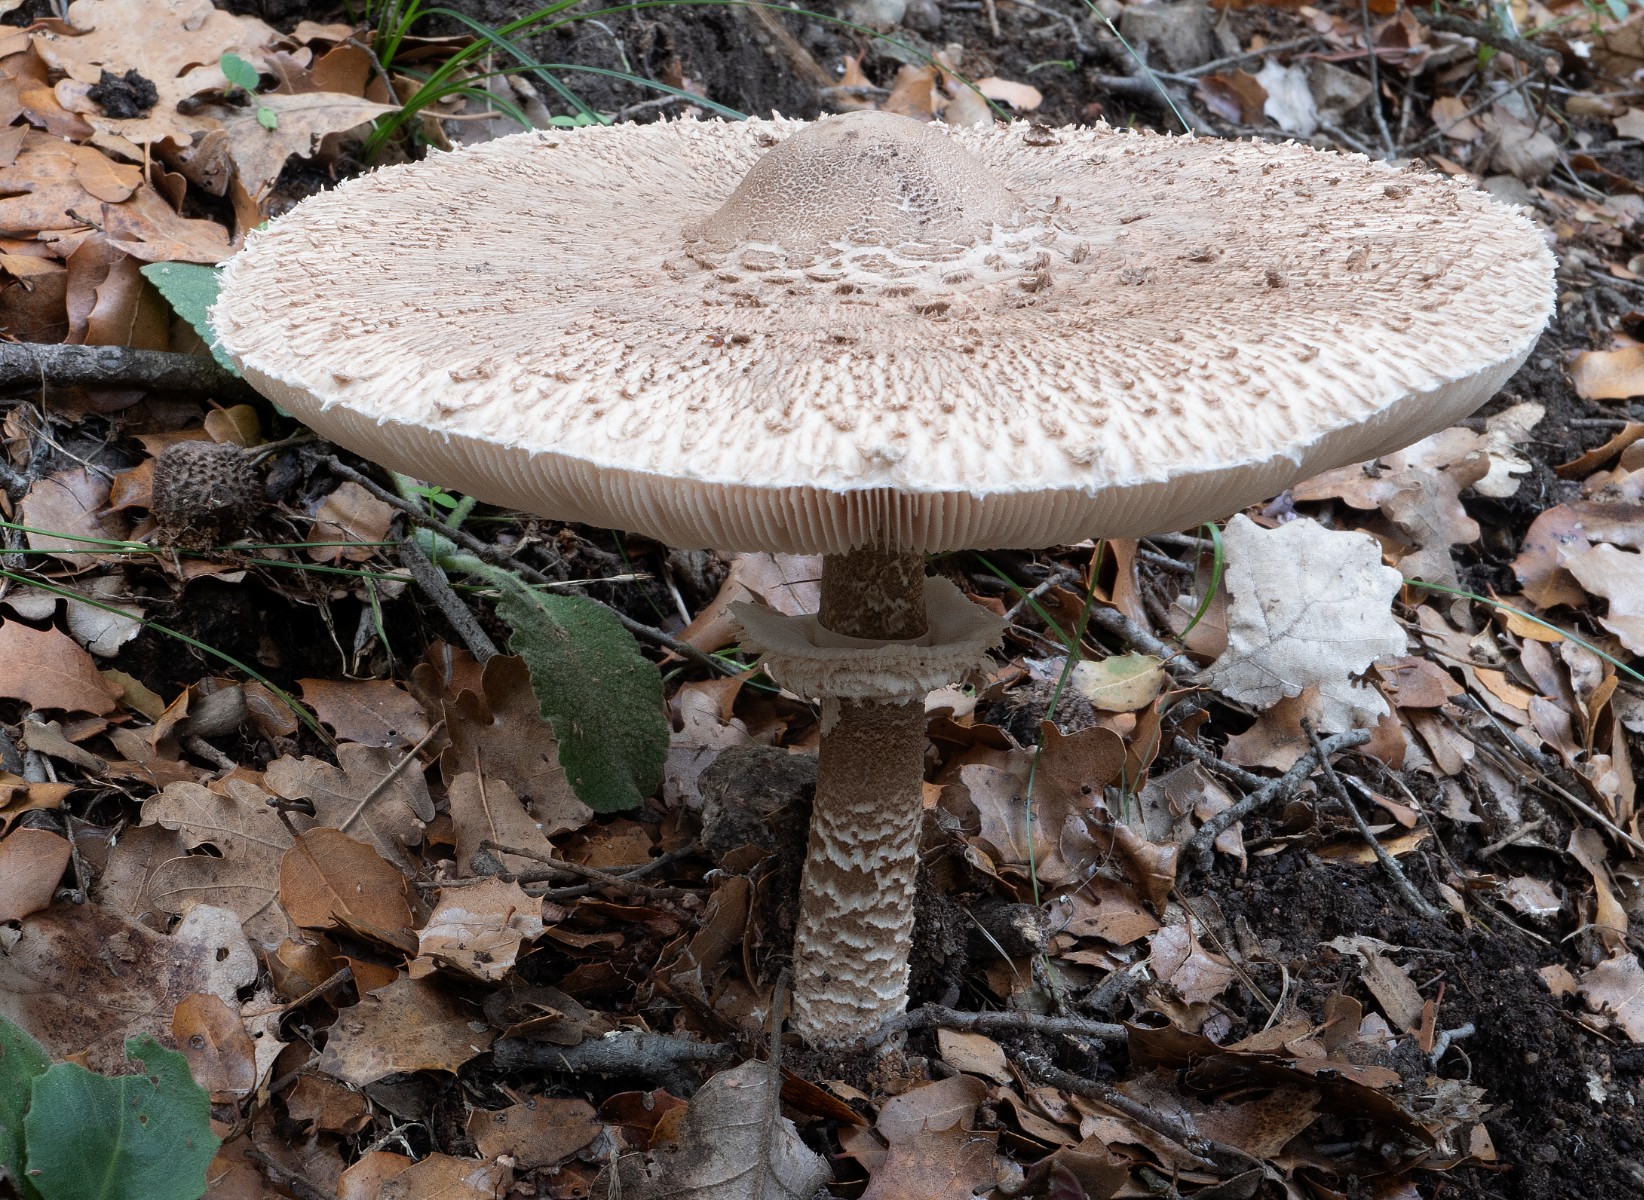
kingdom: Fungi
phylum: Basidiomycota
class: Agaricomycetes
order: Agaricales
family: Agaricaceae
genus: Macrolepiota
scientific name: Macrolepiota procera
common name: stor kæmpeparasolhat
